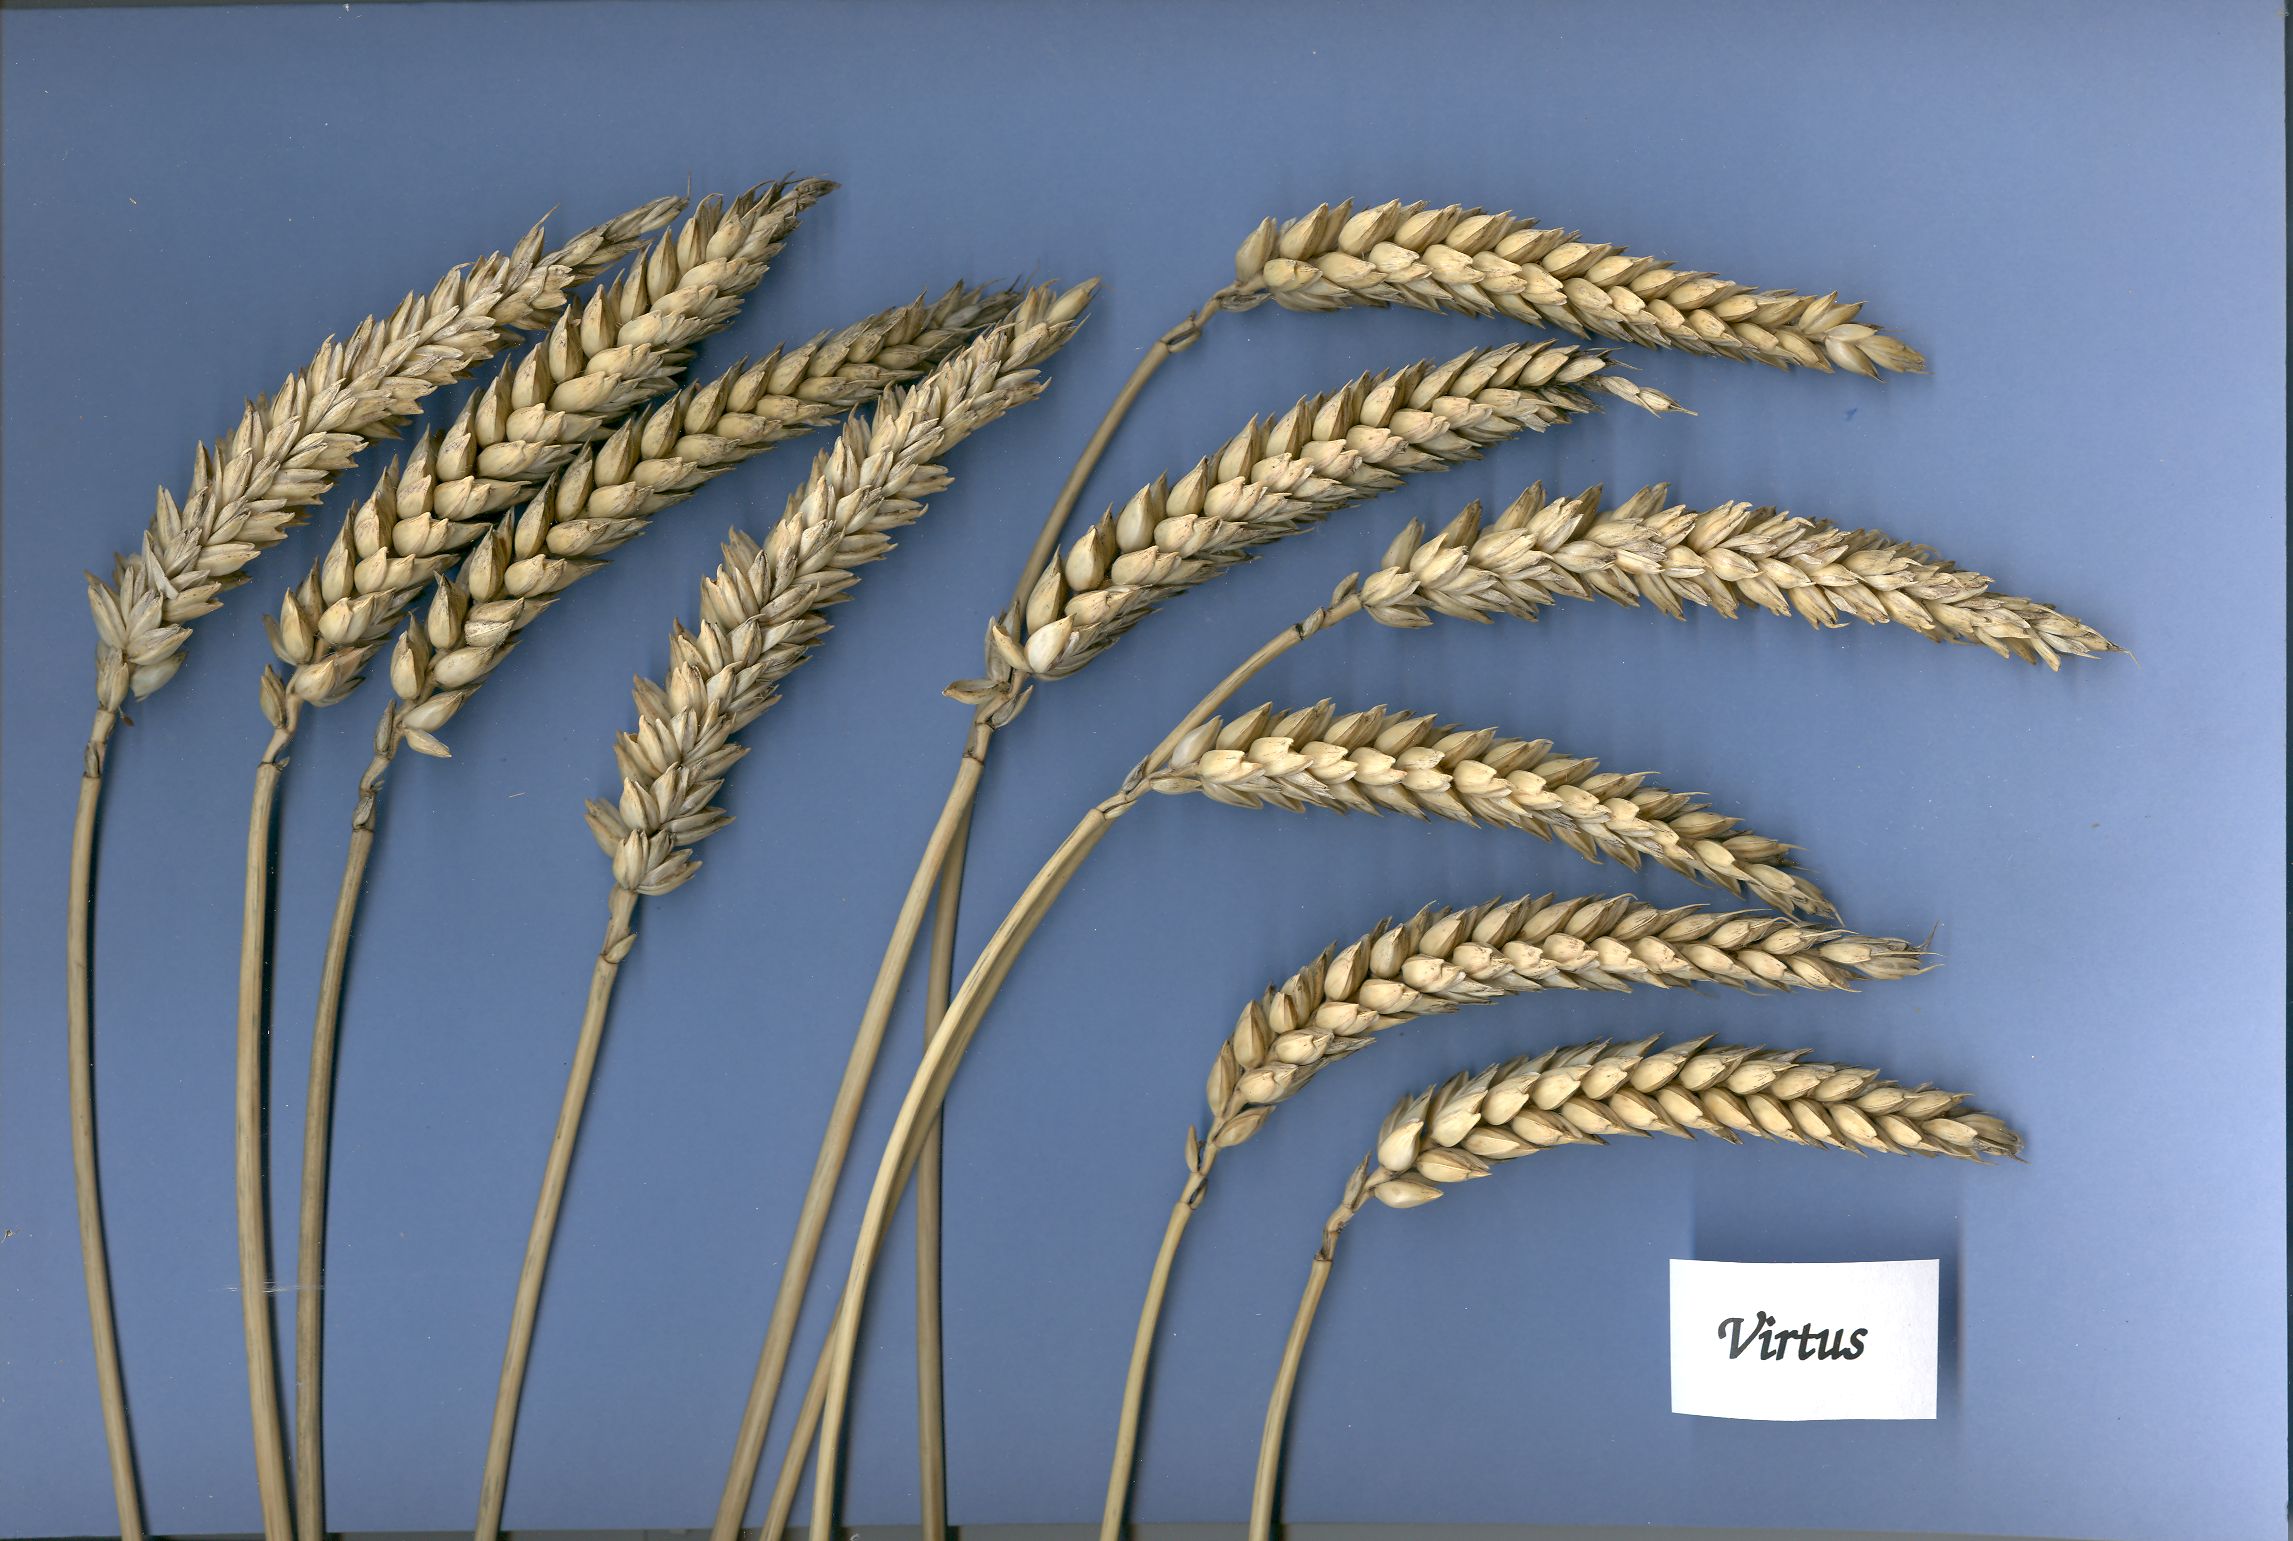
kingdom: Plantae
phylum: Tracheophyta
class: Liliopsida
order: Poales
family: Poaceae
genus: Triticum
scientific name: Triticum aestivum
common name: Common wheat
